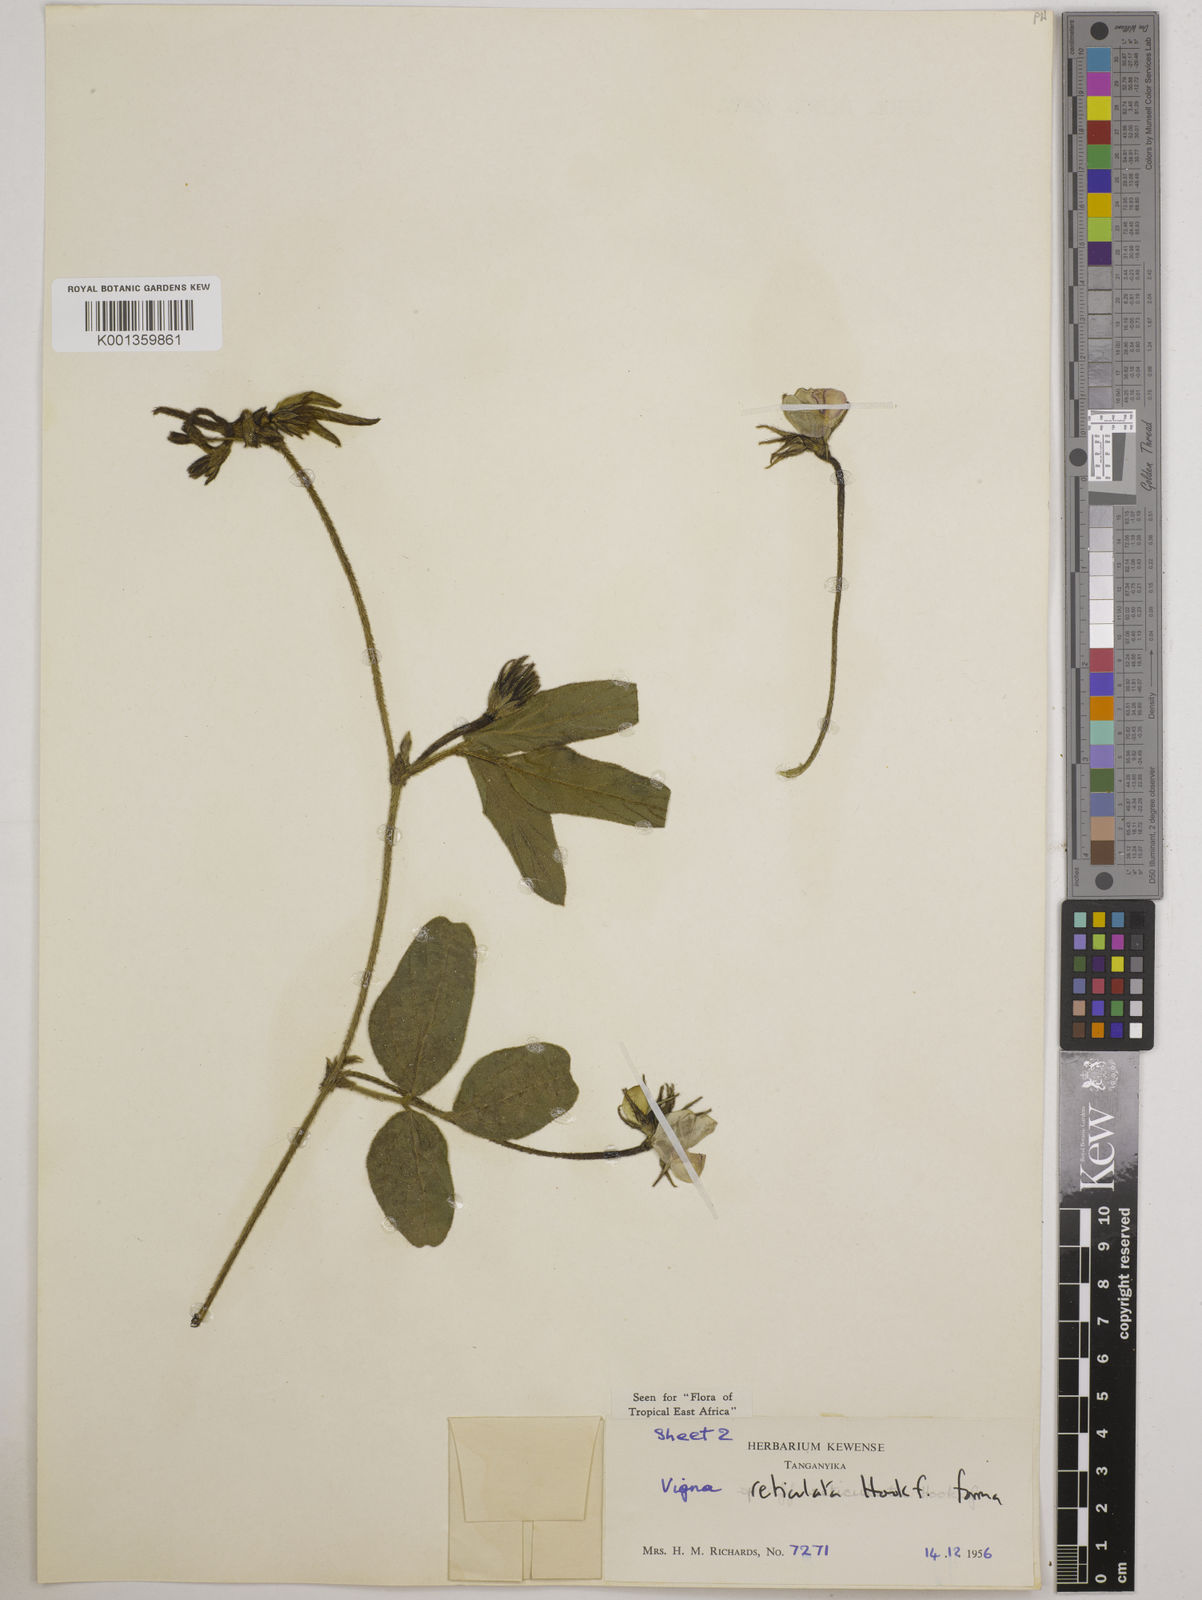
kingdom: Plantae
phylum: Tracheophyta
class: Magnoliopsida
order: Fabales
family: Fabaceae
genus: Vigna
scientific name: Vigna reticulata
